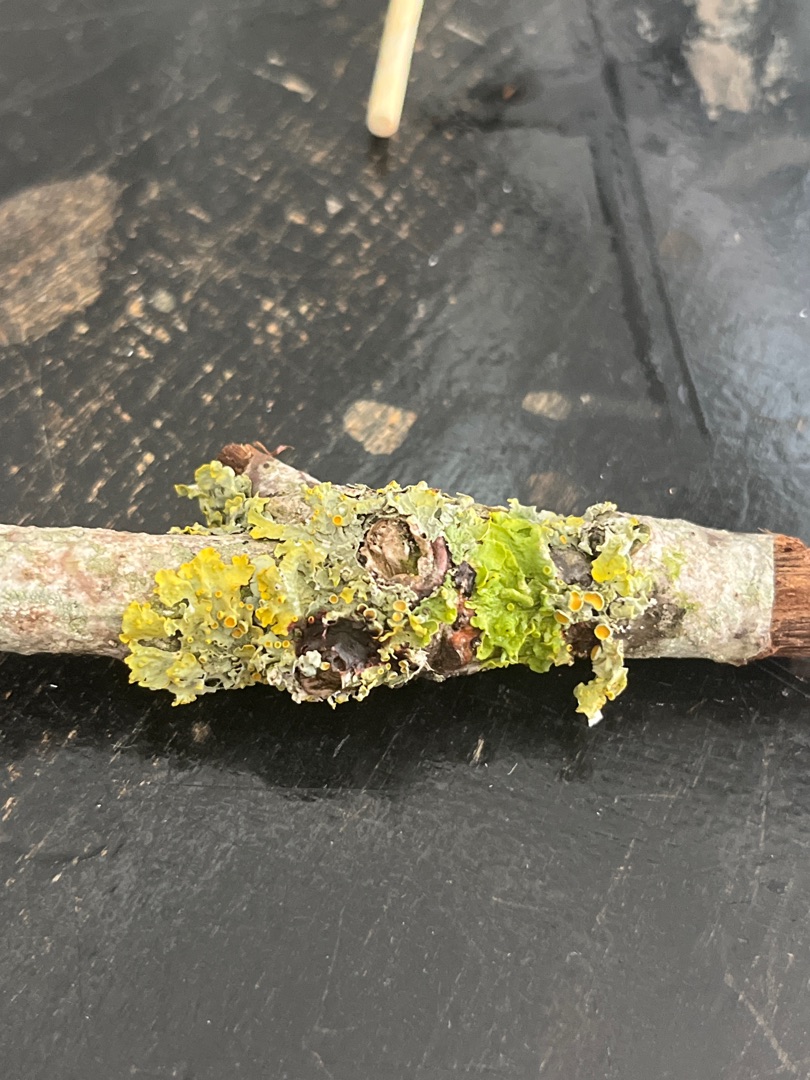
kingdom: Fungi
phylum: Ascomycota
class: Lecanoromycetes
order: Teloschistales
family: Teloschistaceae
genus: Xanthoria
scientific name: Xanthoria parietina
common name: Almindelig væggelav
